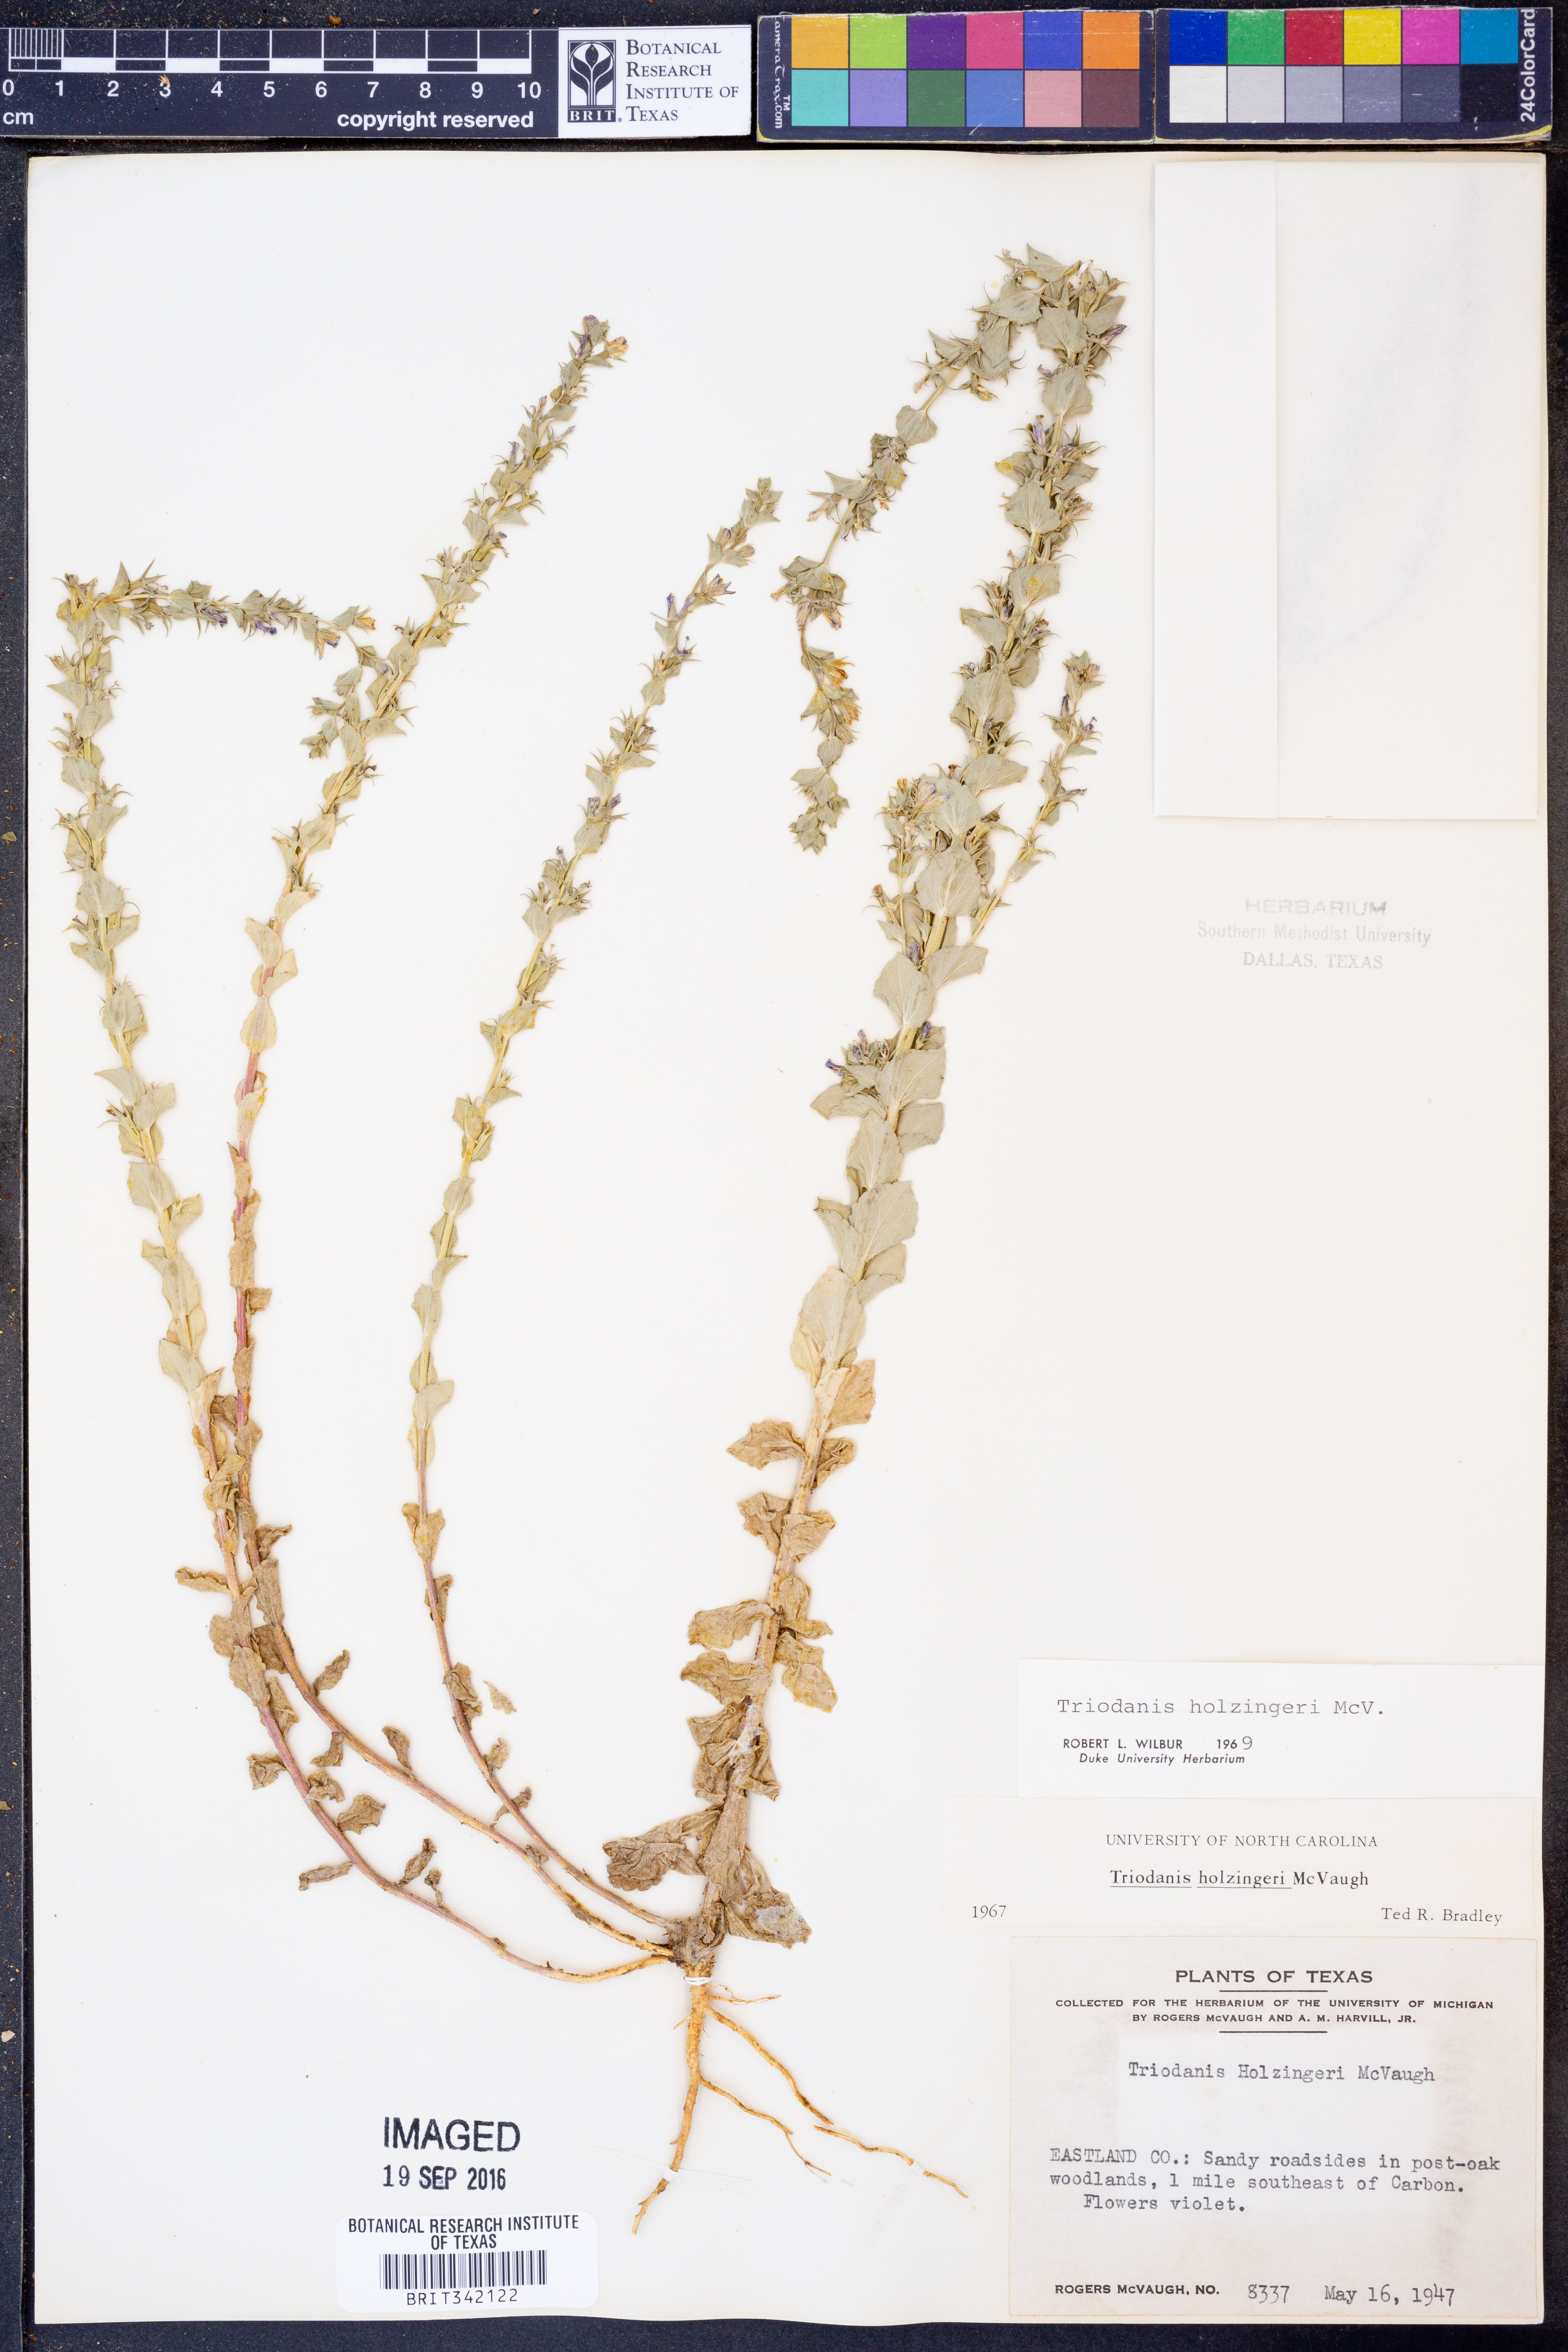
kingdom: Plantae
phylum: Tracheophyta
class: Magnoliopsida
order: Asterales
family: Campanulaceae
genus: Triodanis
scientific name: Triodanis holzingeri
